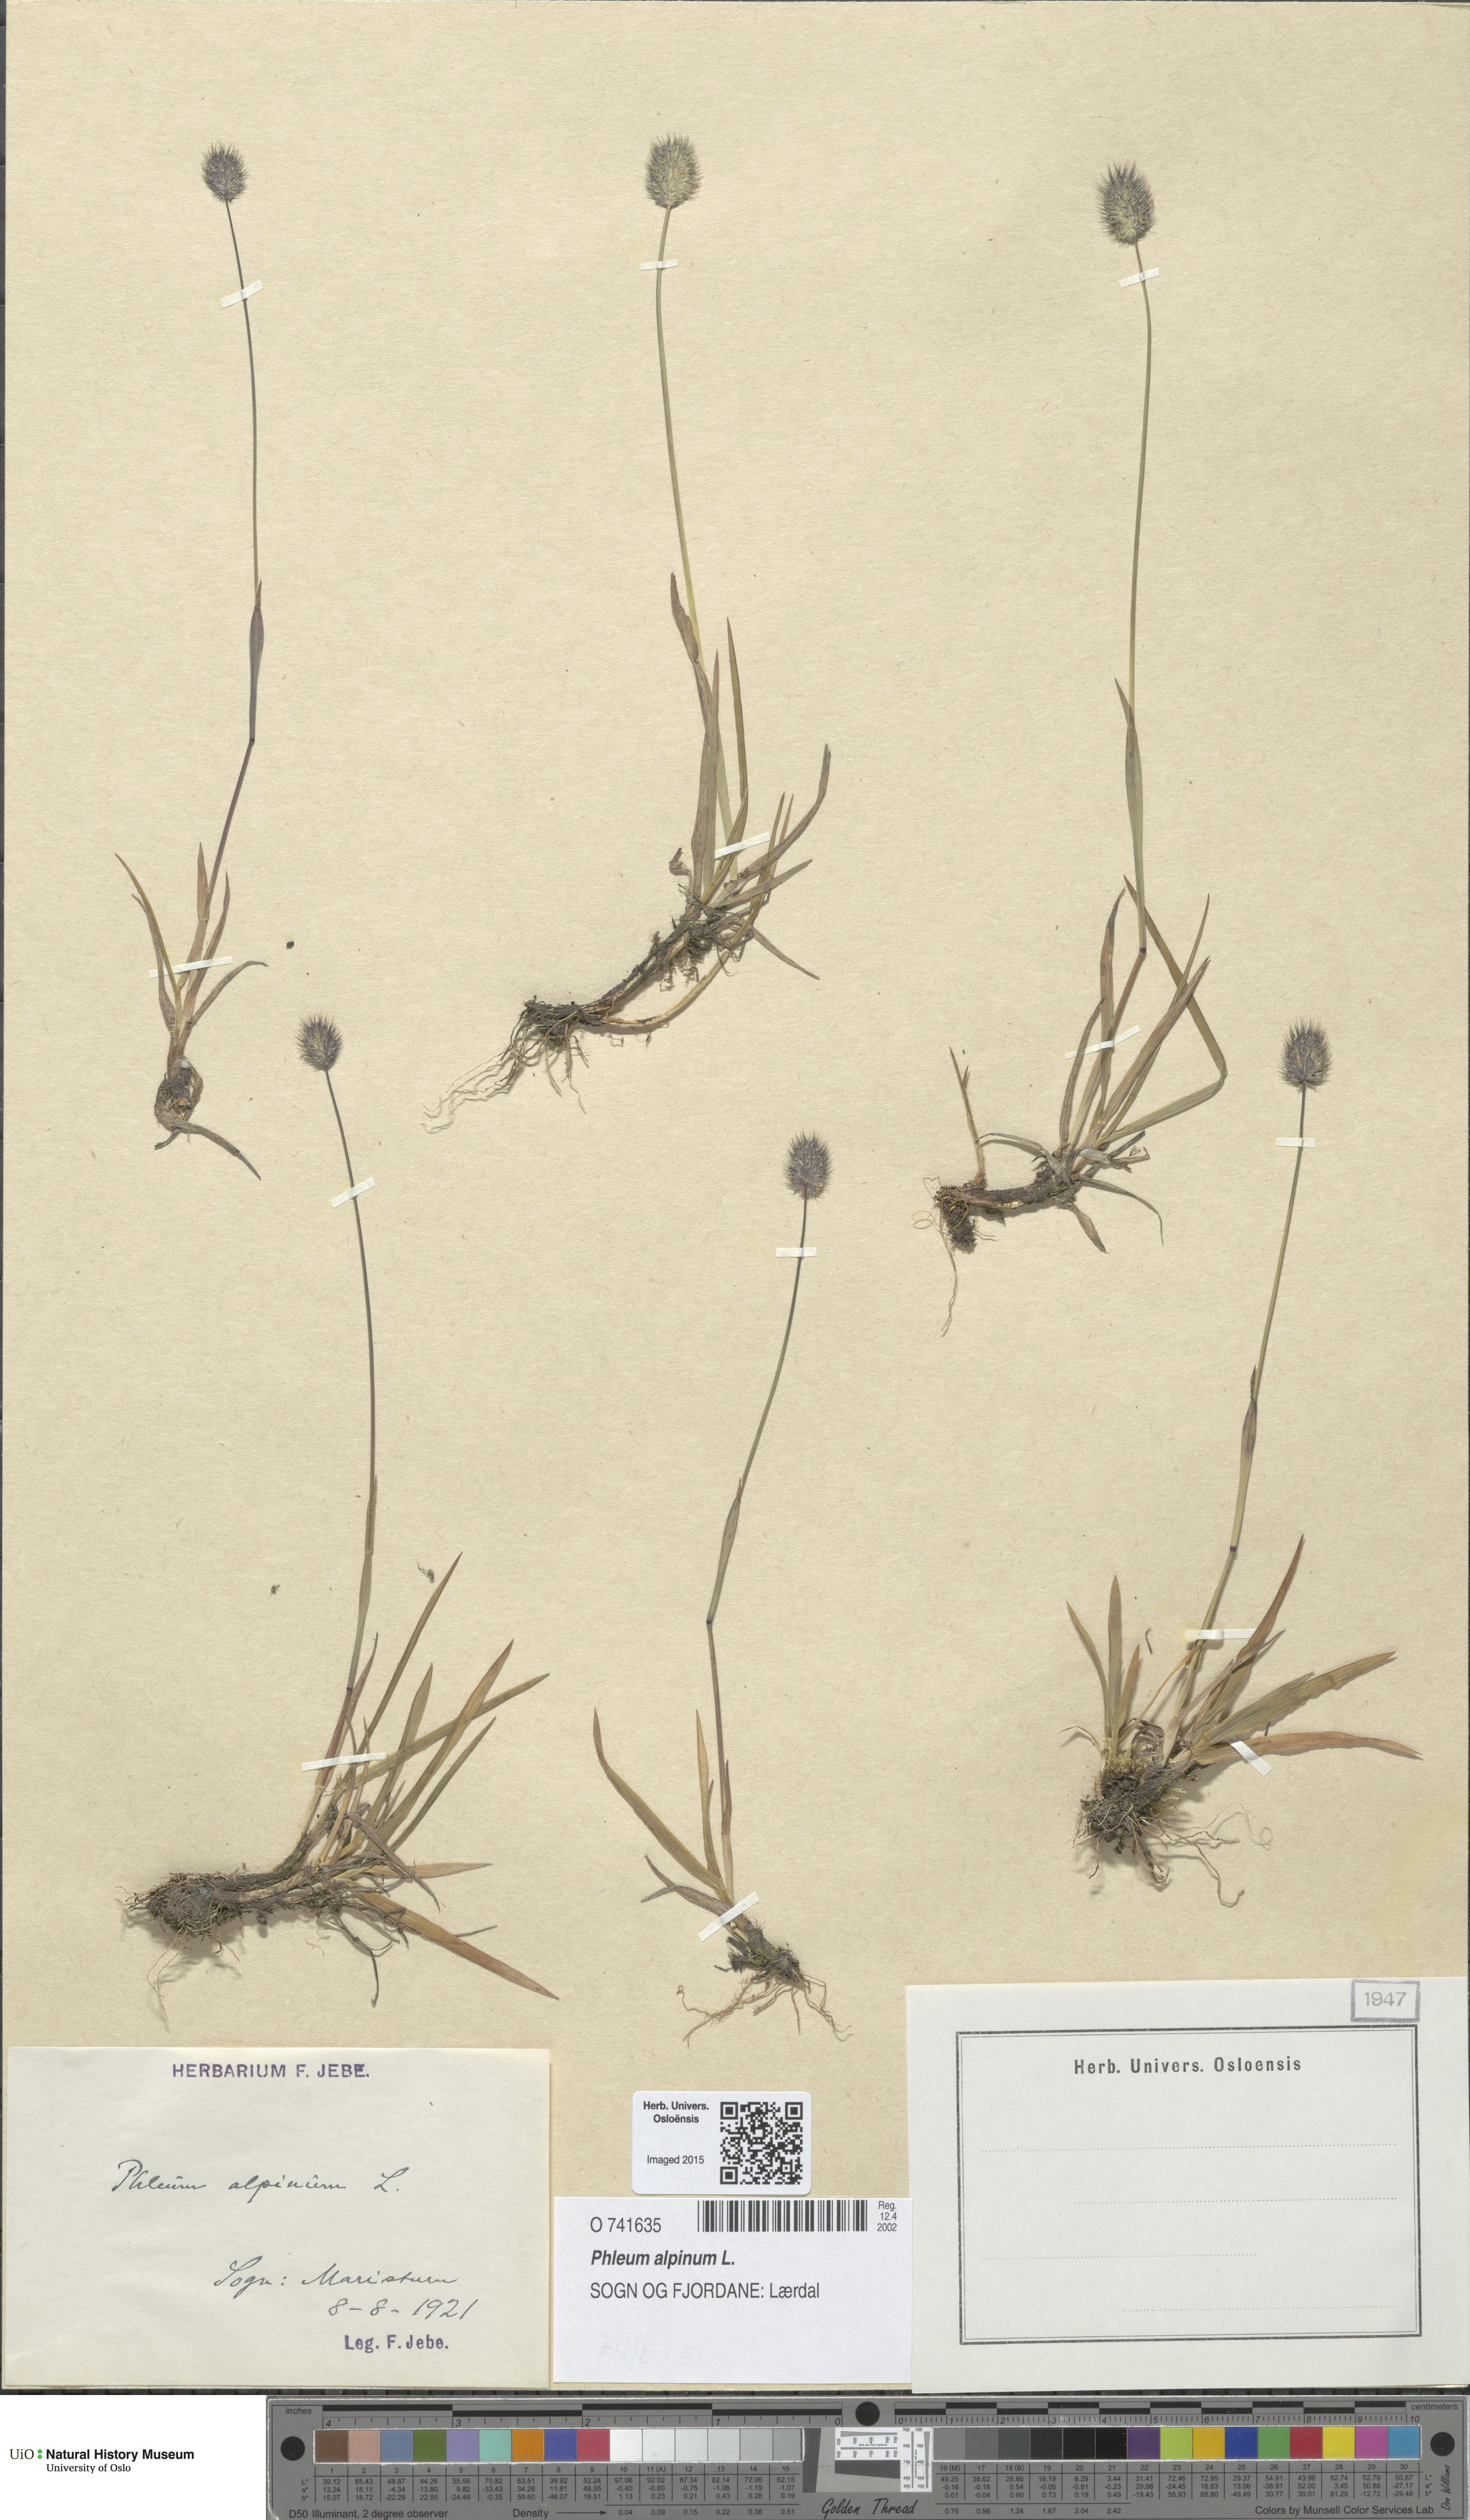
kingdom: Plantae
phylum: Tracheophyta
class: Liliopsida
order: Poales
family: Poaceae
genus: Phleum
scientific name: Phleum alpinum
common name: Alpine cat's-tail
